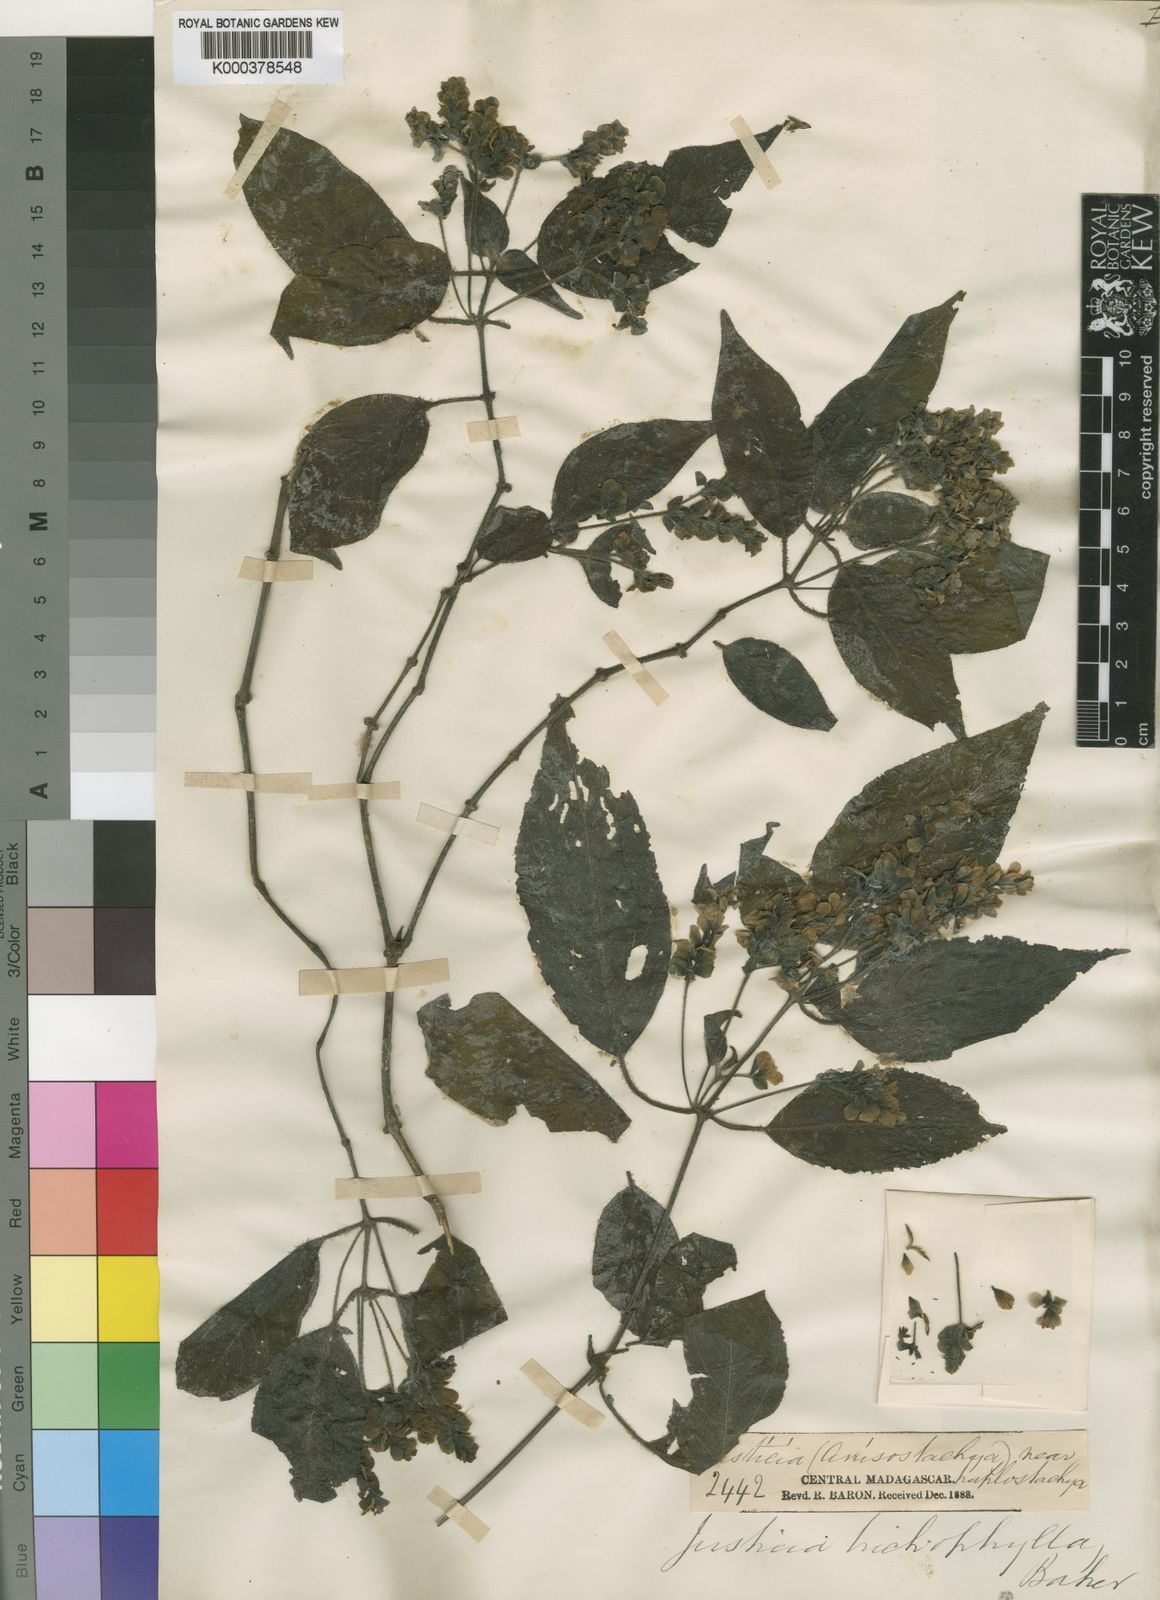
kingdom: Plantae
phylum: Tracheophyta
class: Magnoliopsida
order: Lamiales
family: Acanthaceae
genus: Justicia
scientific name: Justicia trichophylla
